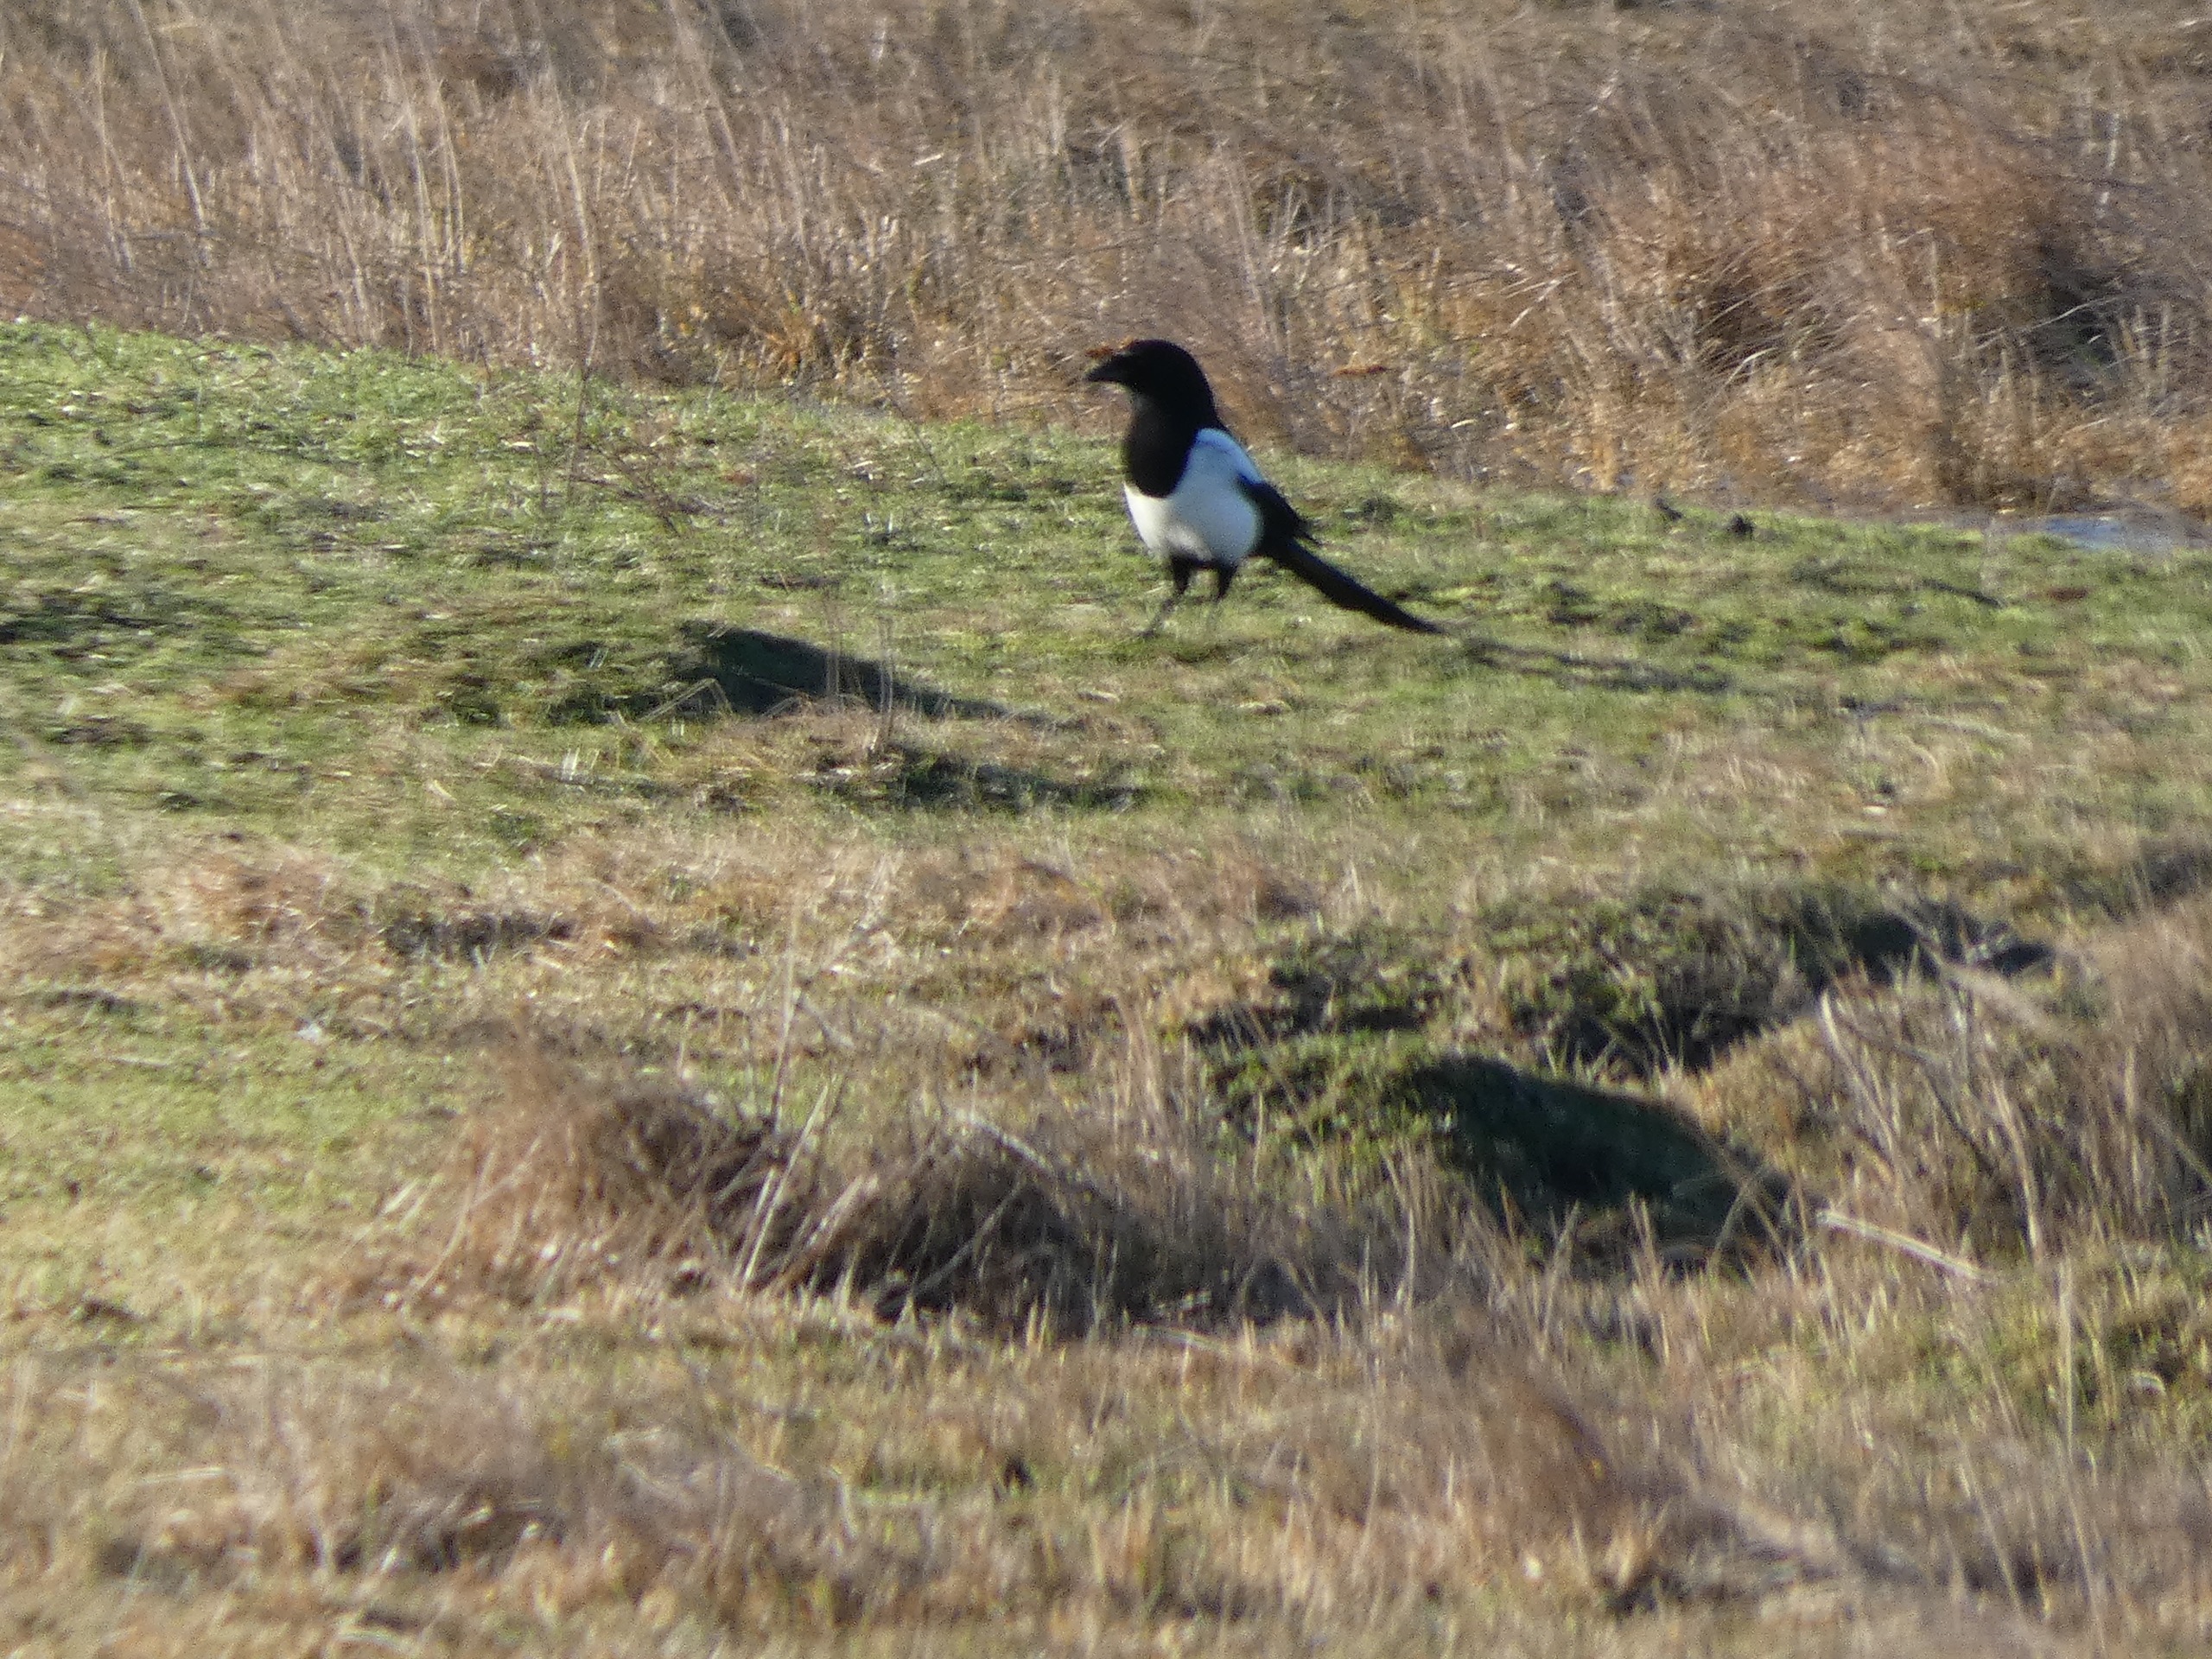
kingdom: Animalia
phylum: Chordata
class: Aves
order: Passeriformes
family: Corvidae
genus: Pica
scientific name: Pica pica
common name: Husskade
